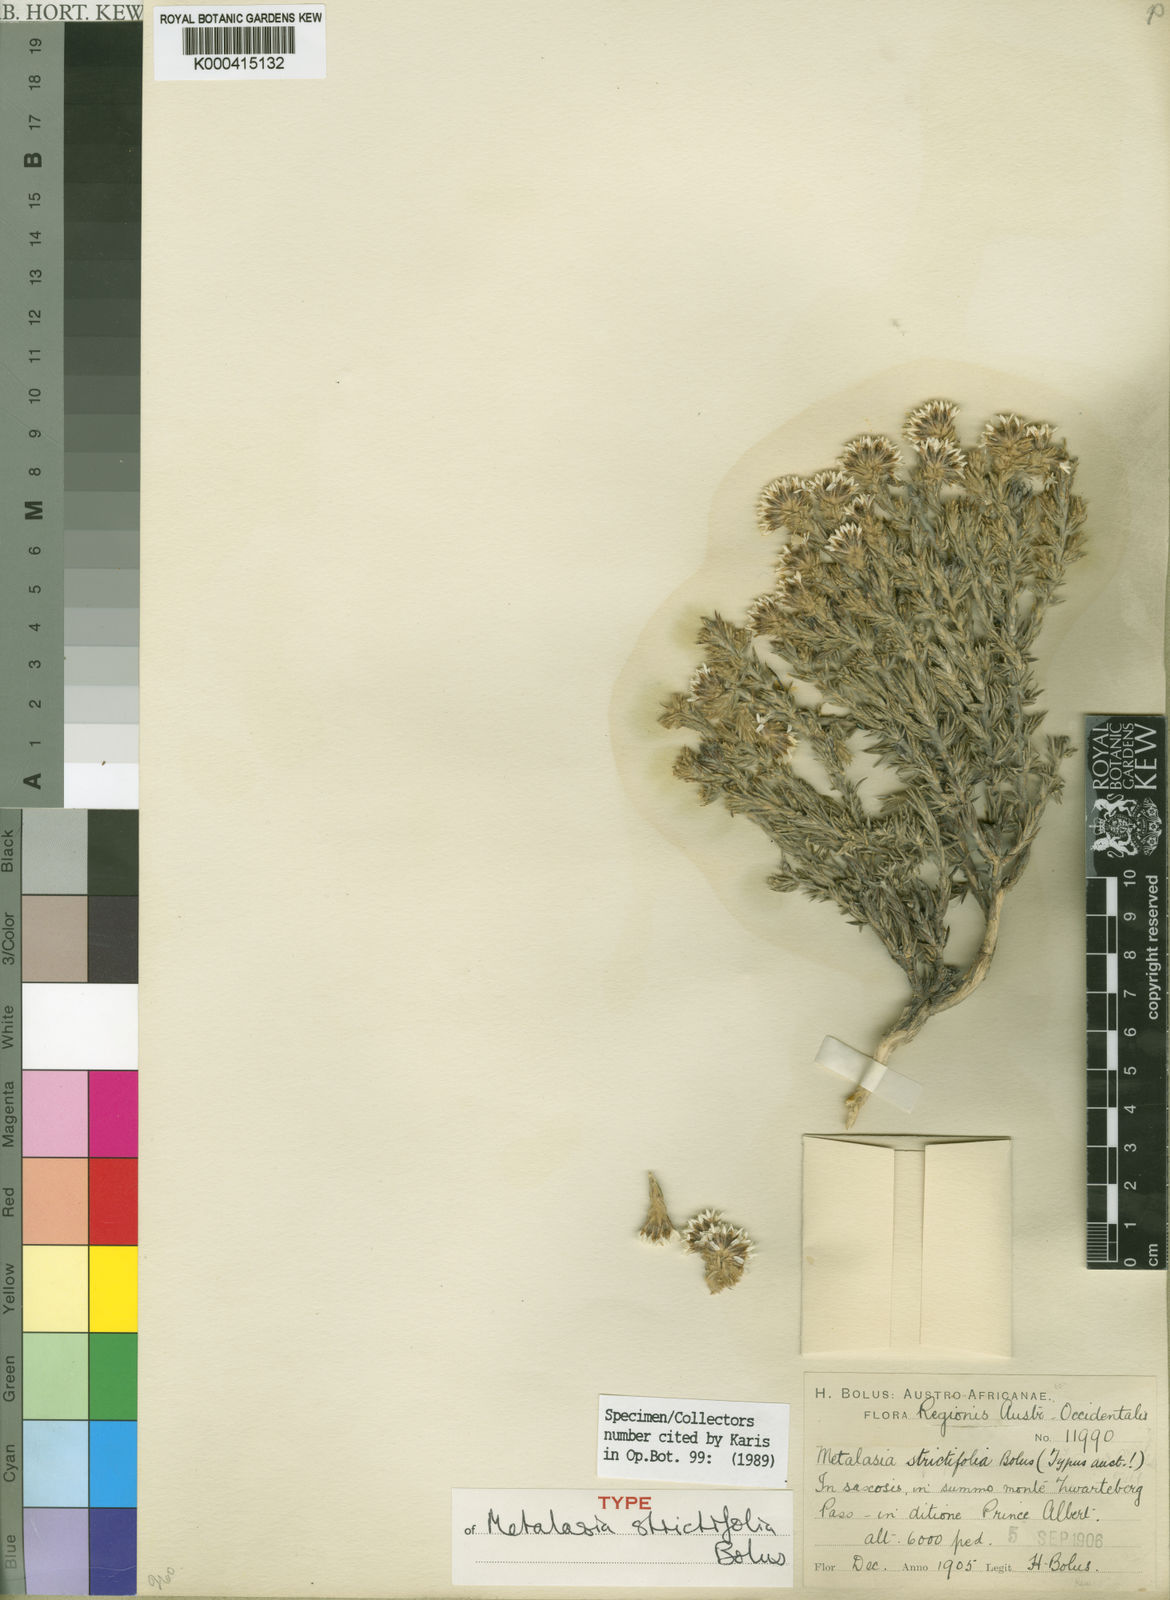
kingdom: Plantae
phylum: Tracheophyta
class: Magnoliopsida
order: Asterales
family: Asteraceae
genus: Metalasia
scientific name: Metalasia strictifolia
